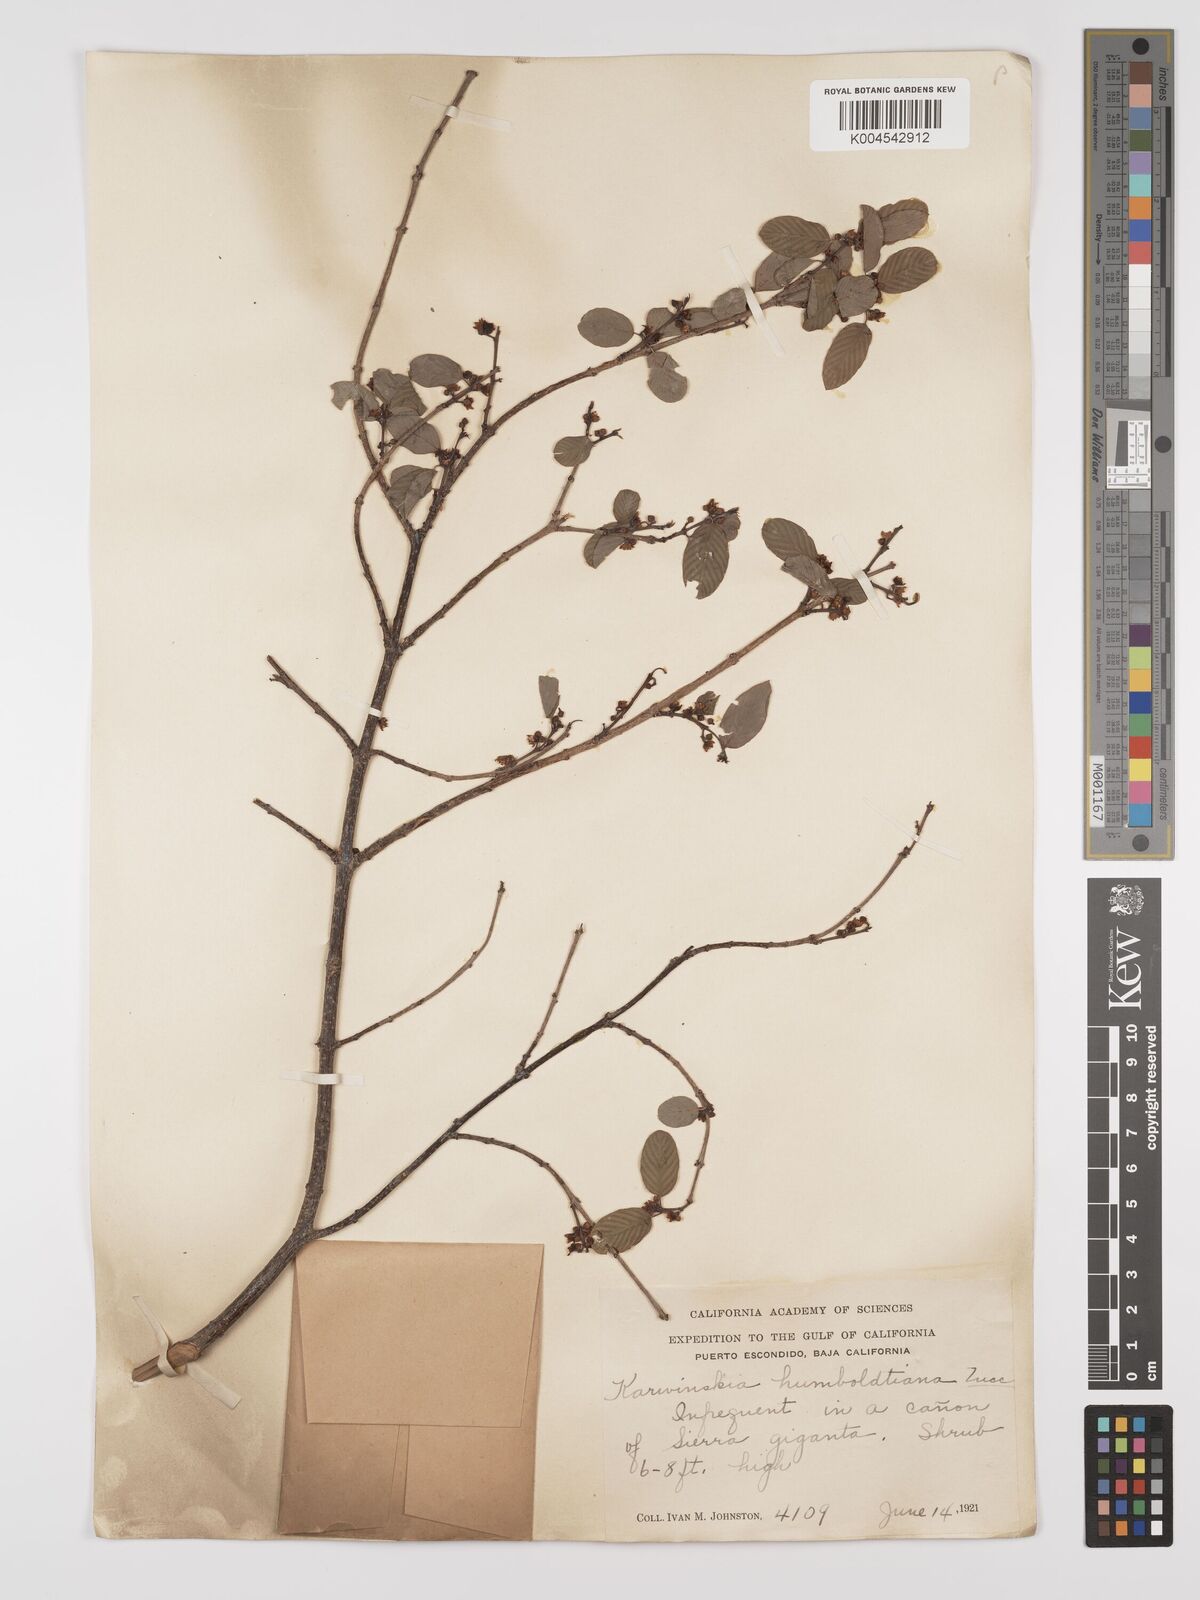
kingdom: Plantae
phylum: Tracheophyta
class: Magnoliopsida
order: Rosales
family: Rhamnaceae
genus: Karwinskia
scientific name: Karwinskia humboldtiana
